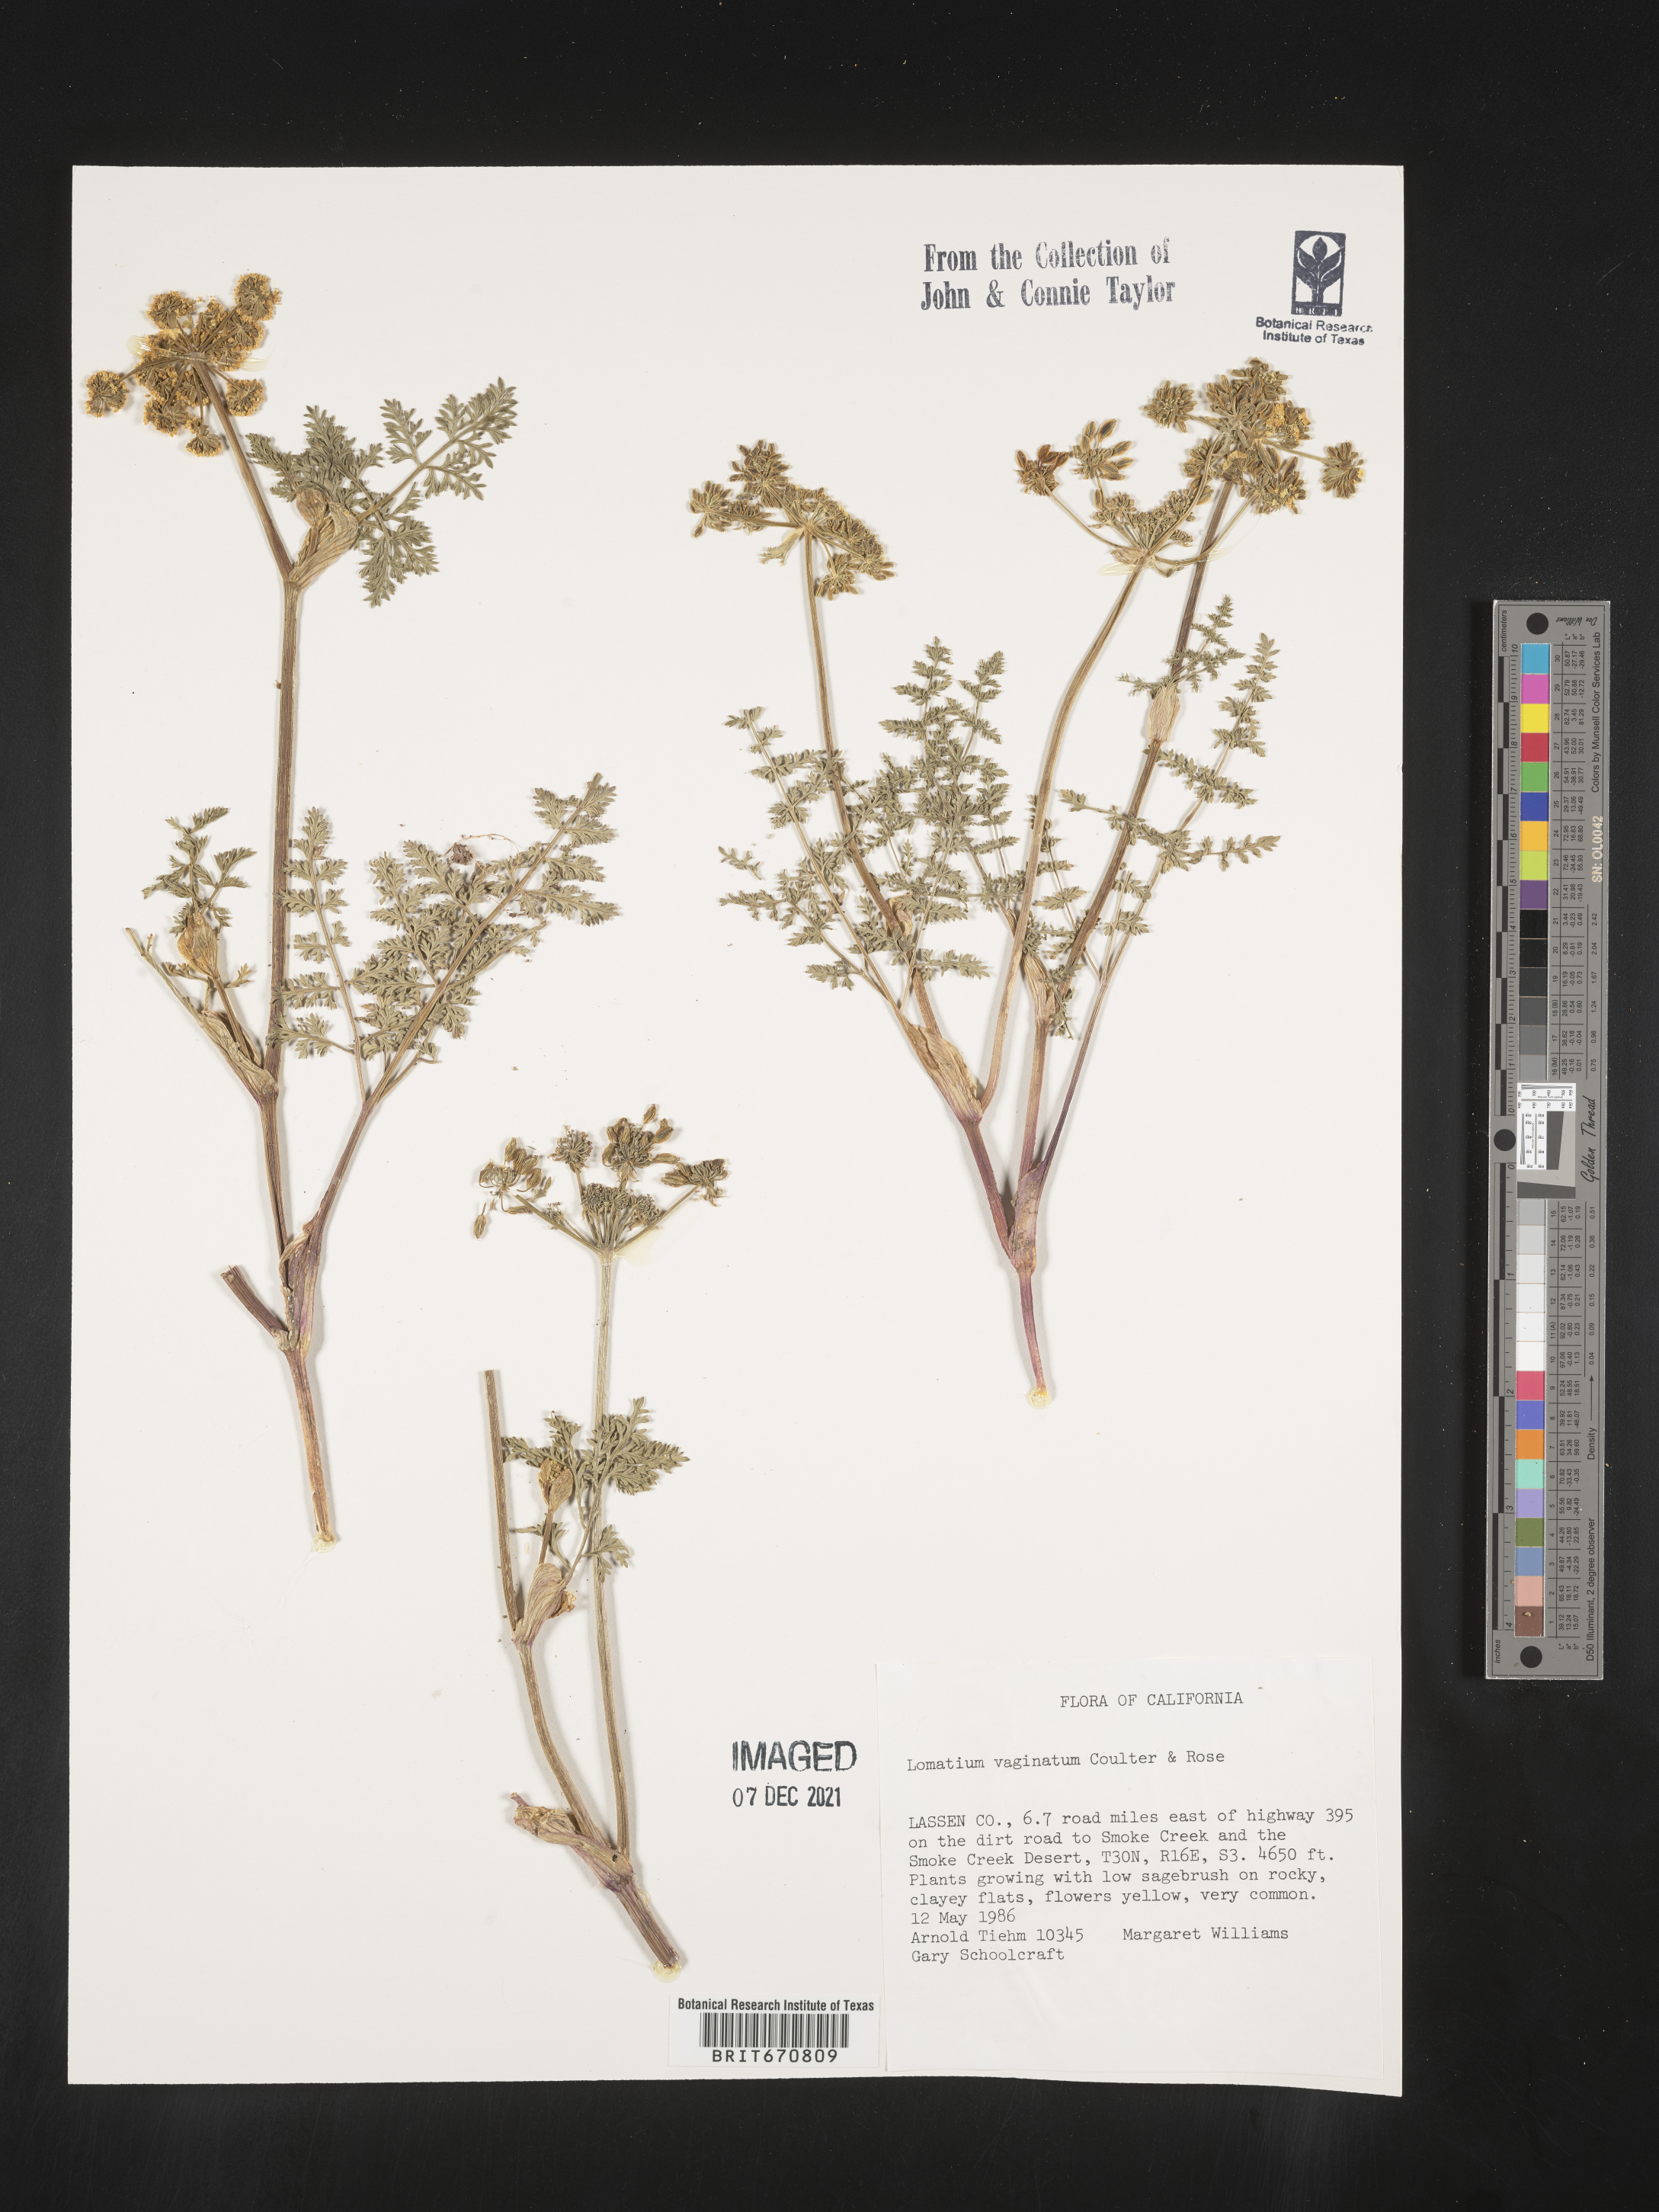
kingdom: Plantae
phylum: Tracheophyta
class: Magnoliopsida
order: Apiales
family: Apiaceae
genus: Lomatium
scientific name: Lomatium vaginatum
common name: Broadsheath desert-parsley
